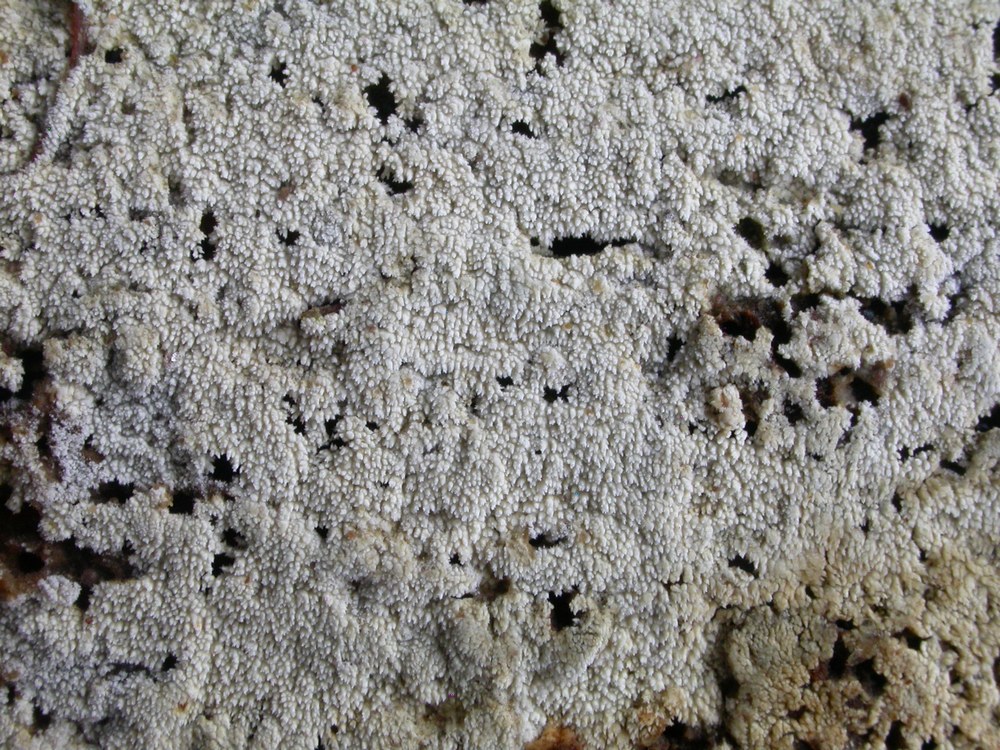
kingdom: Fungi
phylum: Basidiomycota
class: Agaricomycetes
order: Hymenochaetales
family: Schizoporaceae
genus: Xylodon
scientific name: Xylodon nesporii
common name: fintandet tandsvamp
